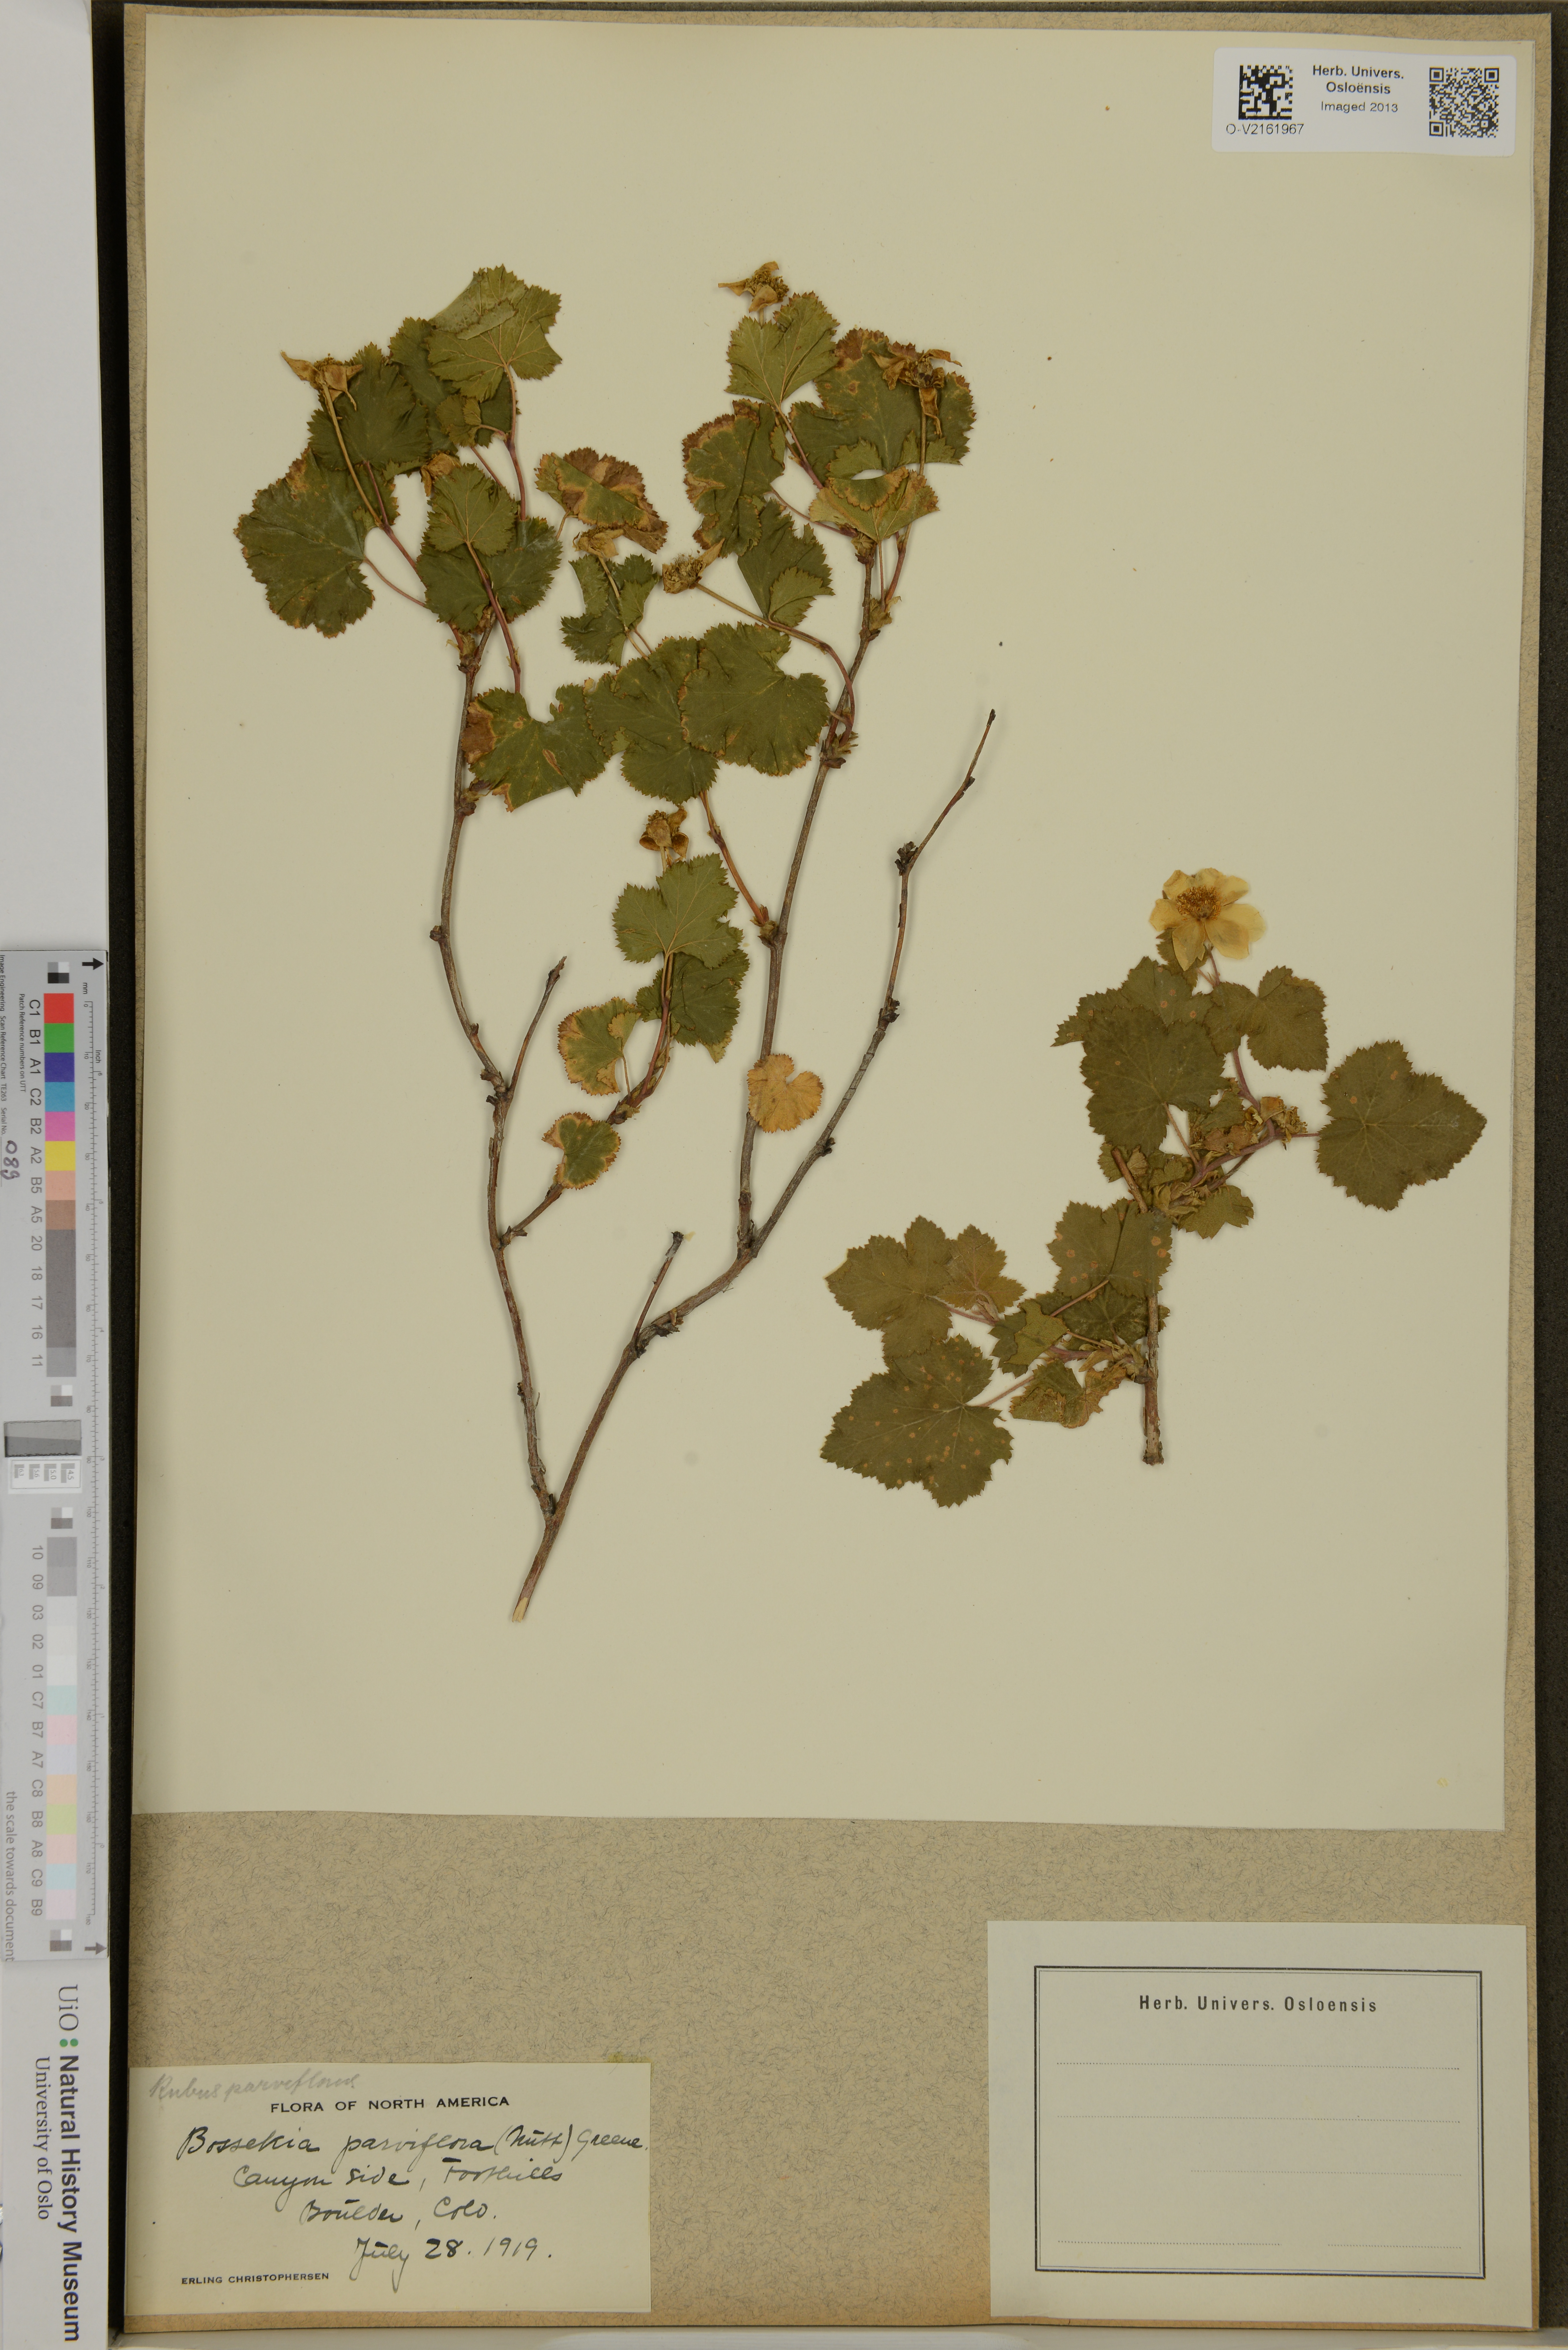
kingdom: Plantae
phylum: Tracheophyta
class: Magnoliopsida
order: Rosales
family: Rosaceae
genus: Rubus
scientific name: Rubus nutkanus
